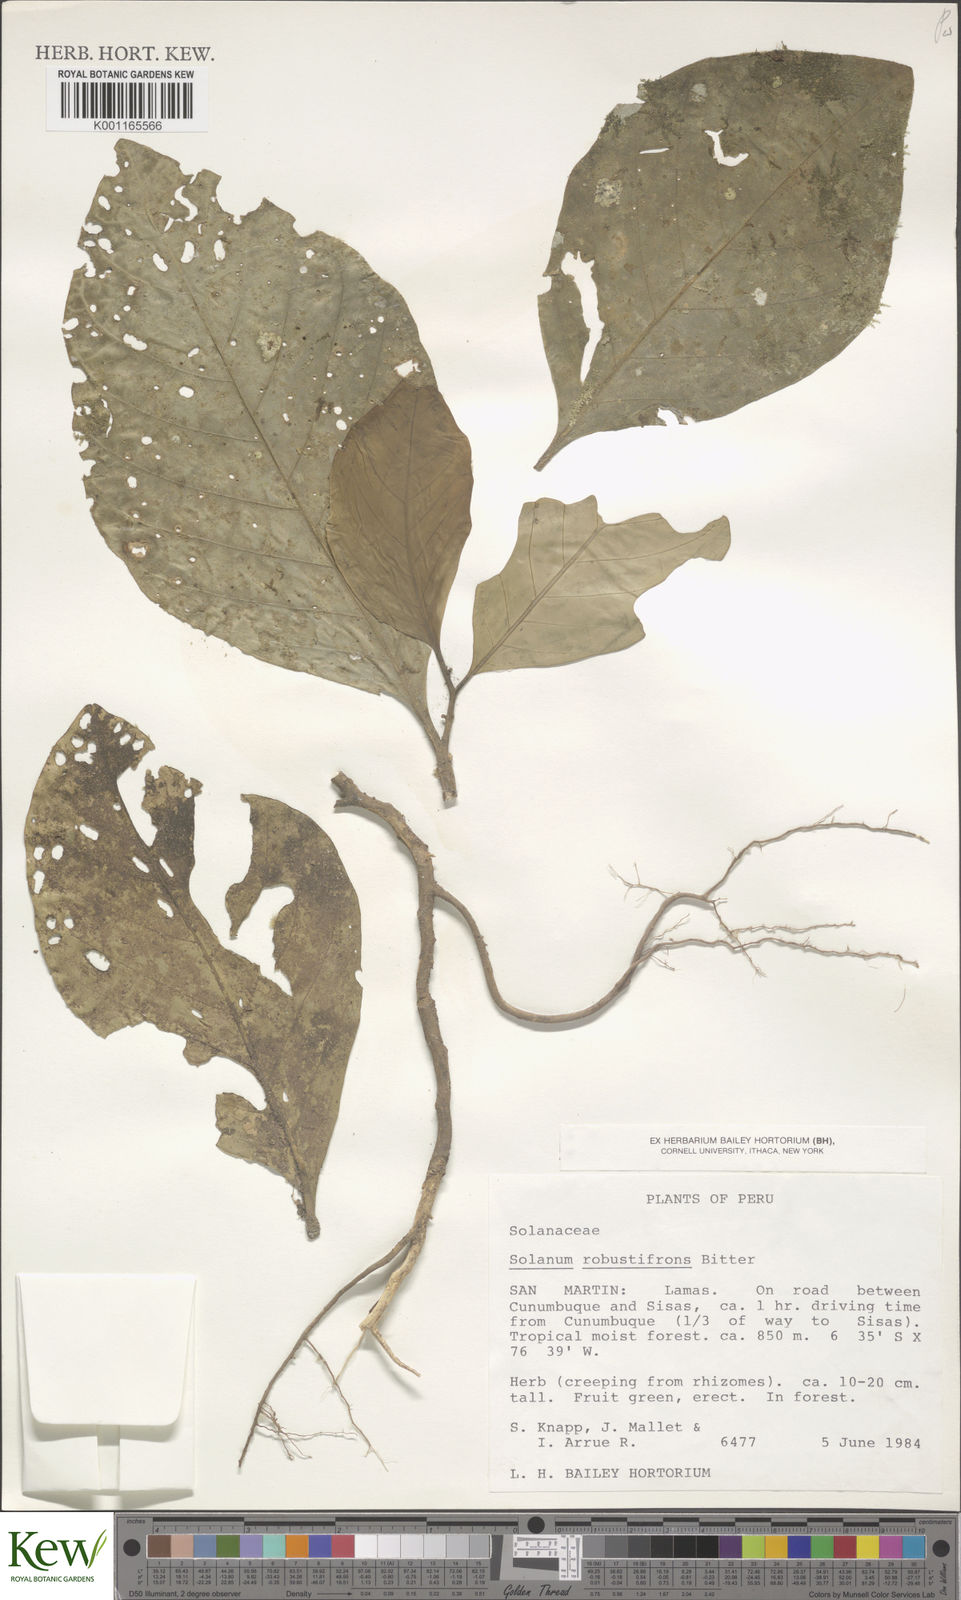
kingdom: Plantae
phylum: Tracheophyta
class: Magnoliopsida
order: Solanales
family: Solanaceae
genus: Solanum
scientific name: Solanum robustifrons
